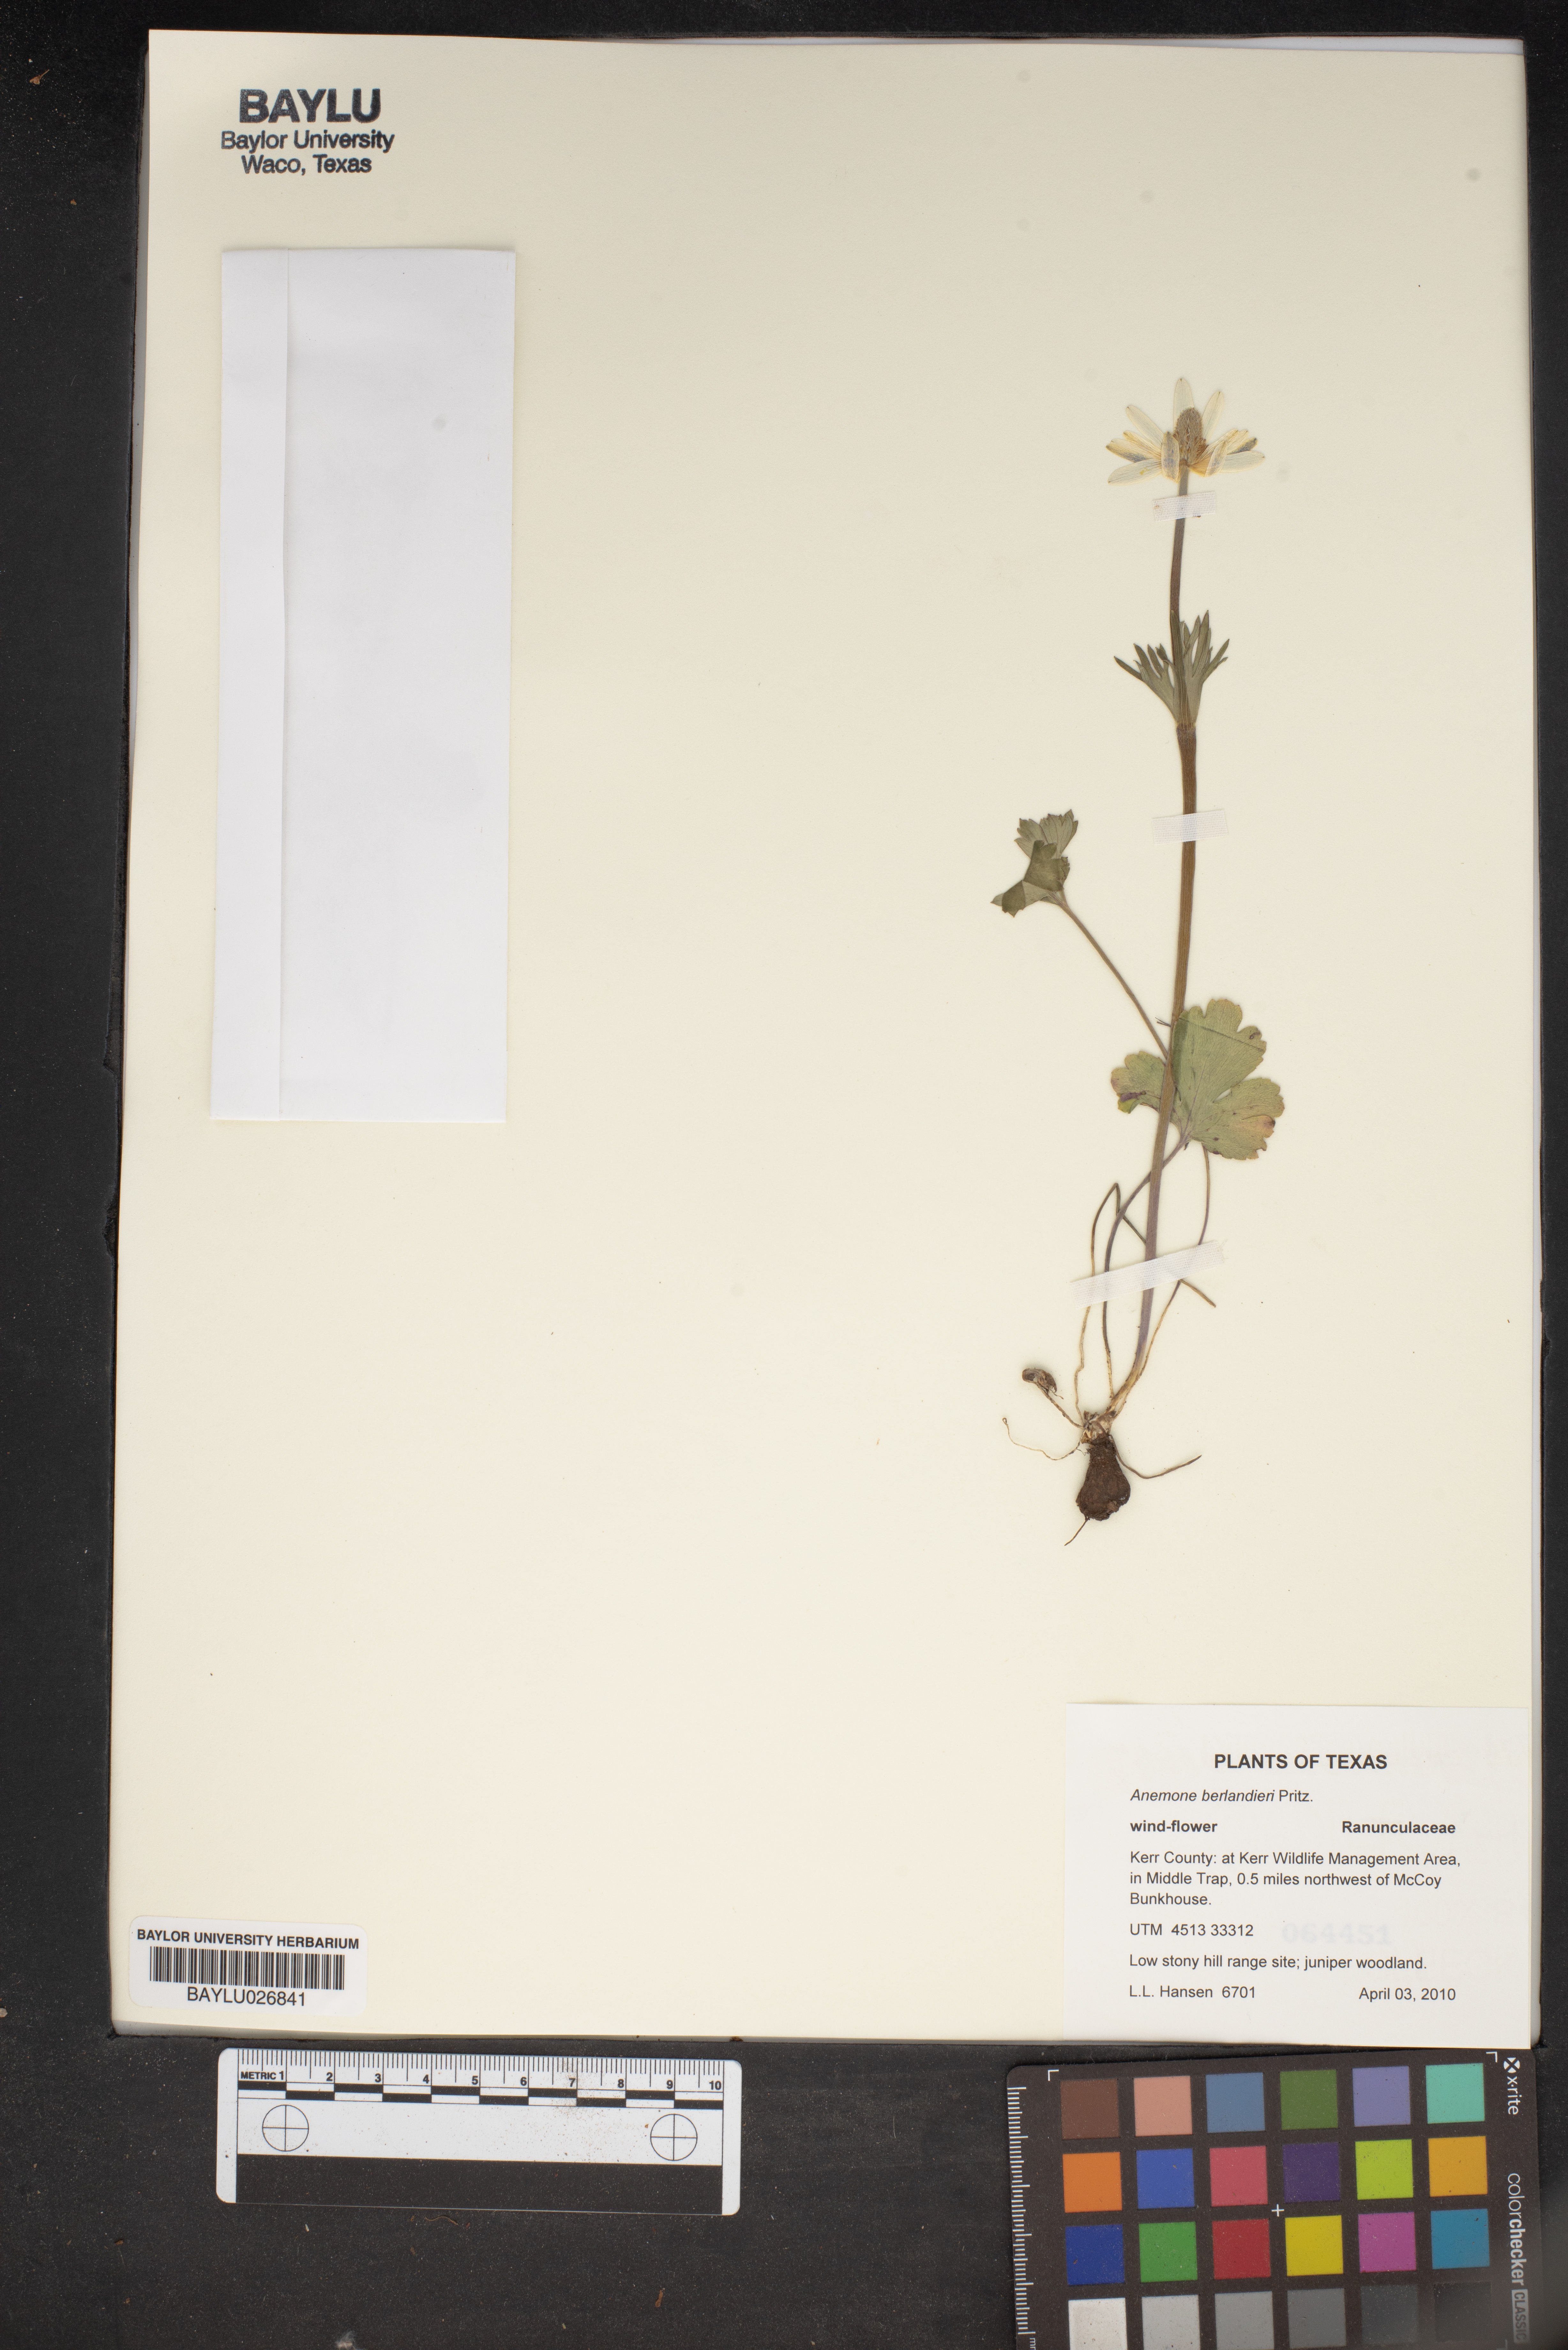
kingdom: Plantae
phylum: Tracheophyta
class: Magnoliopsida
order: Ranunculales
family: Ranunculaceae
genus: Anemone
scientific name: Anemone berlandieri
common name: Ten-petal anemone
